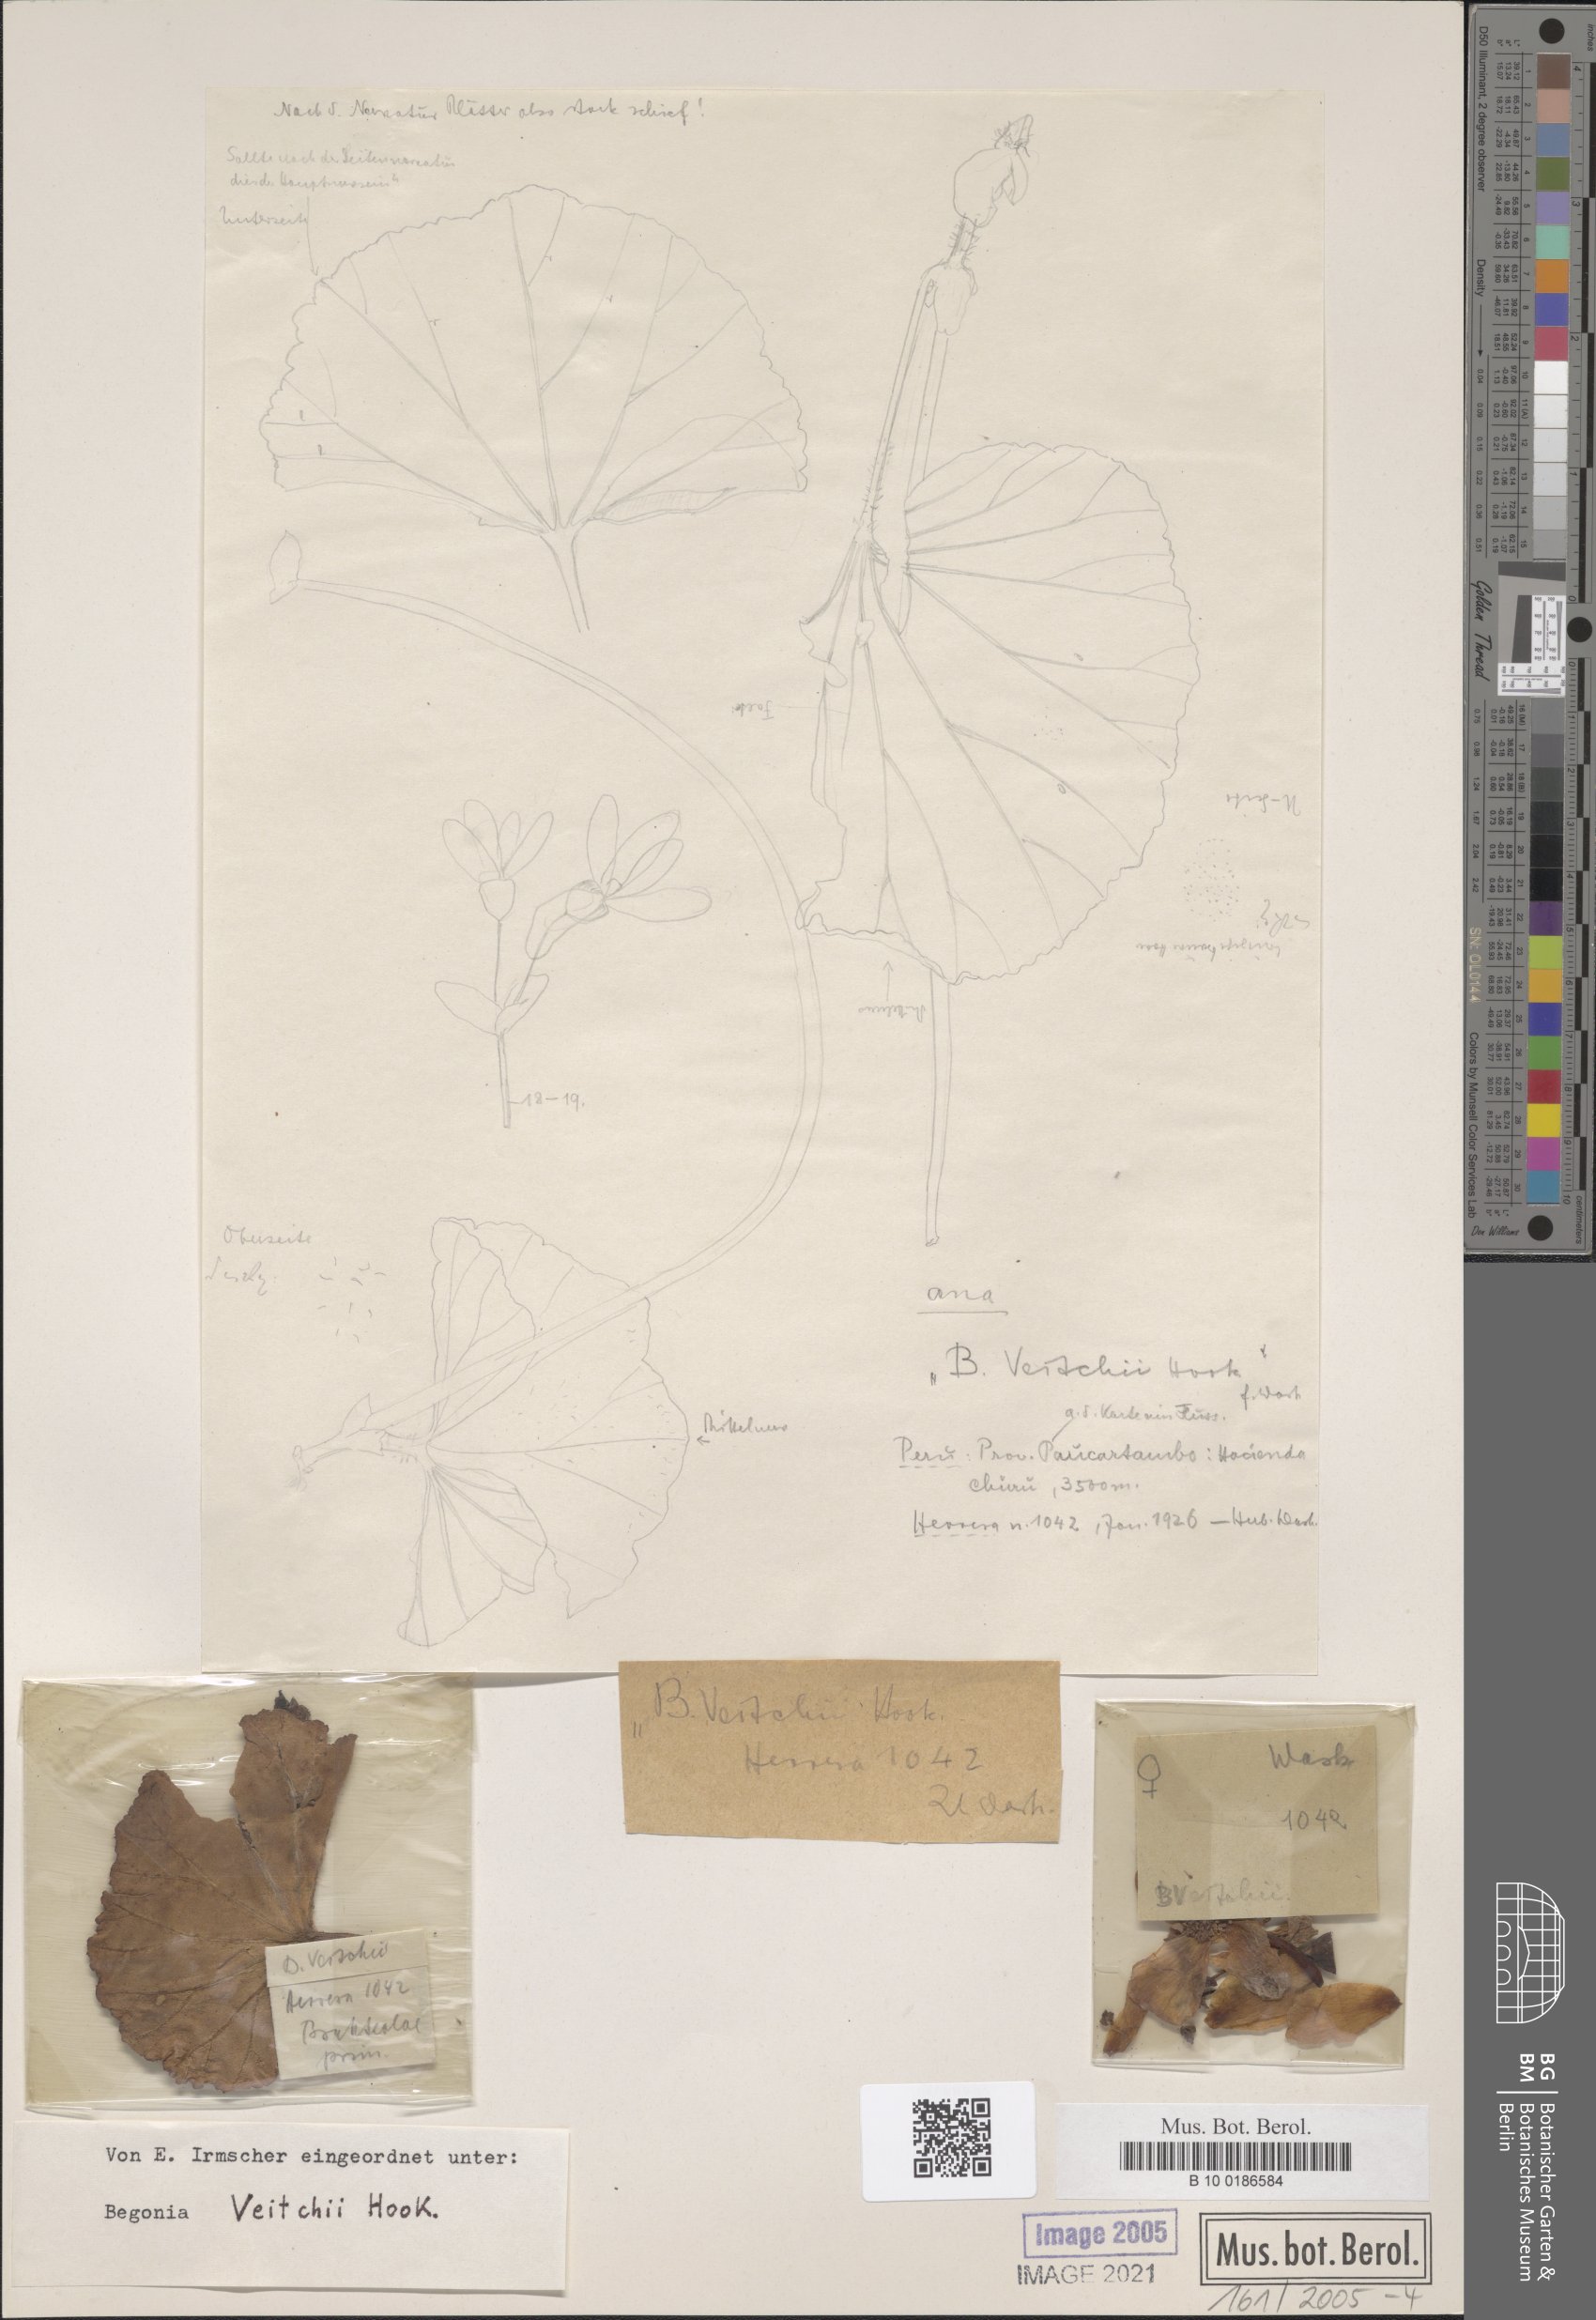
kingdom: Plantae
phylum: Tracheophyta
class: Magnoliopsida
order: Cucurbitales
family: Begoniaceae
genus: Begonia
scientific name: Begonia veitchii
